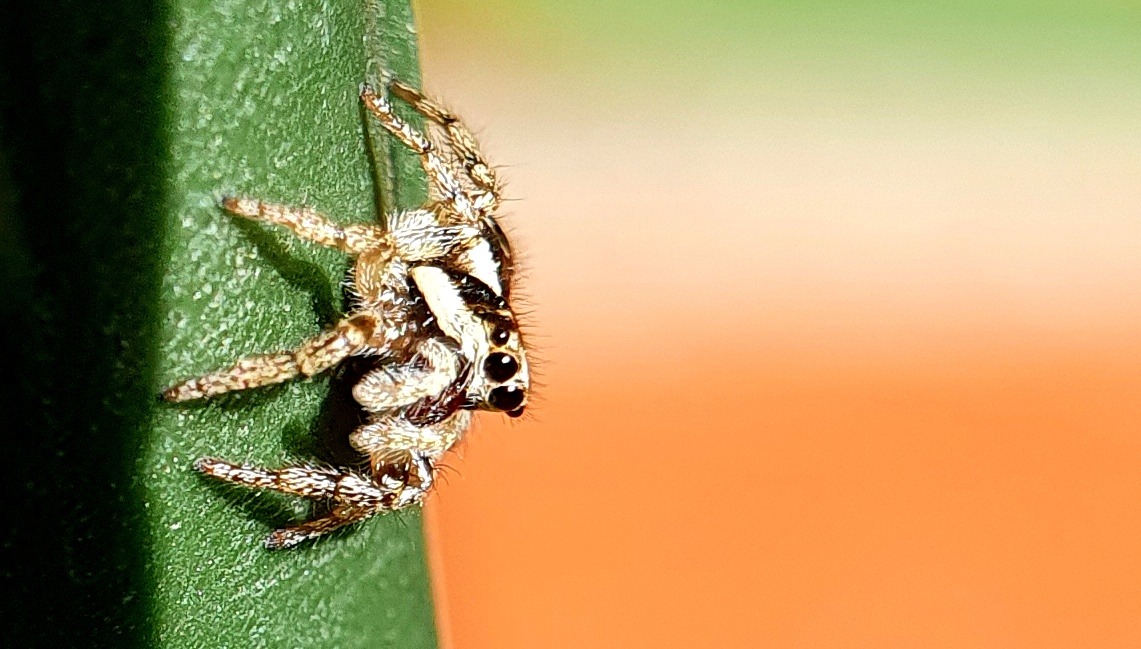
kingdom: Animalia
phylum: Arthropoda
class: Arachnida
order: Araneae
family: Salticidae
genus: Salticus
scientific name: Salticus scenicus
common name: Almindelig zebraedderkop
